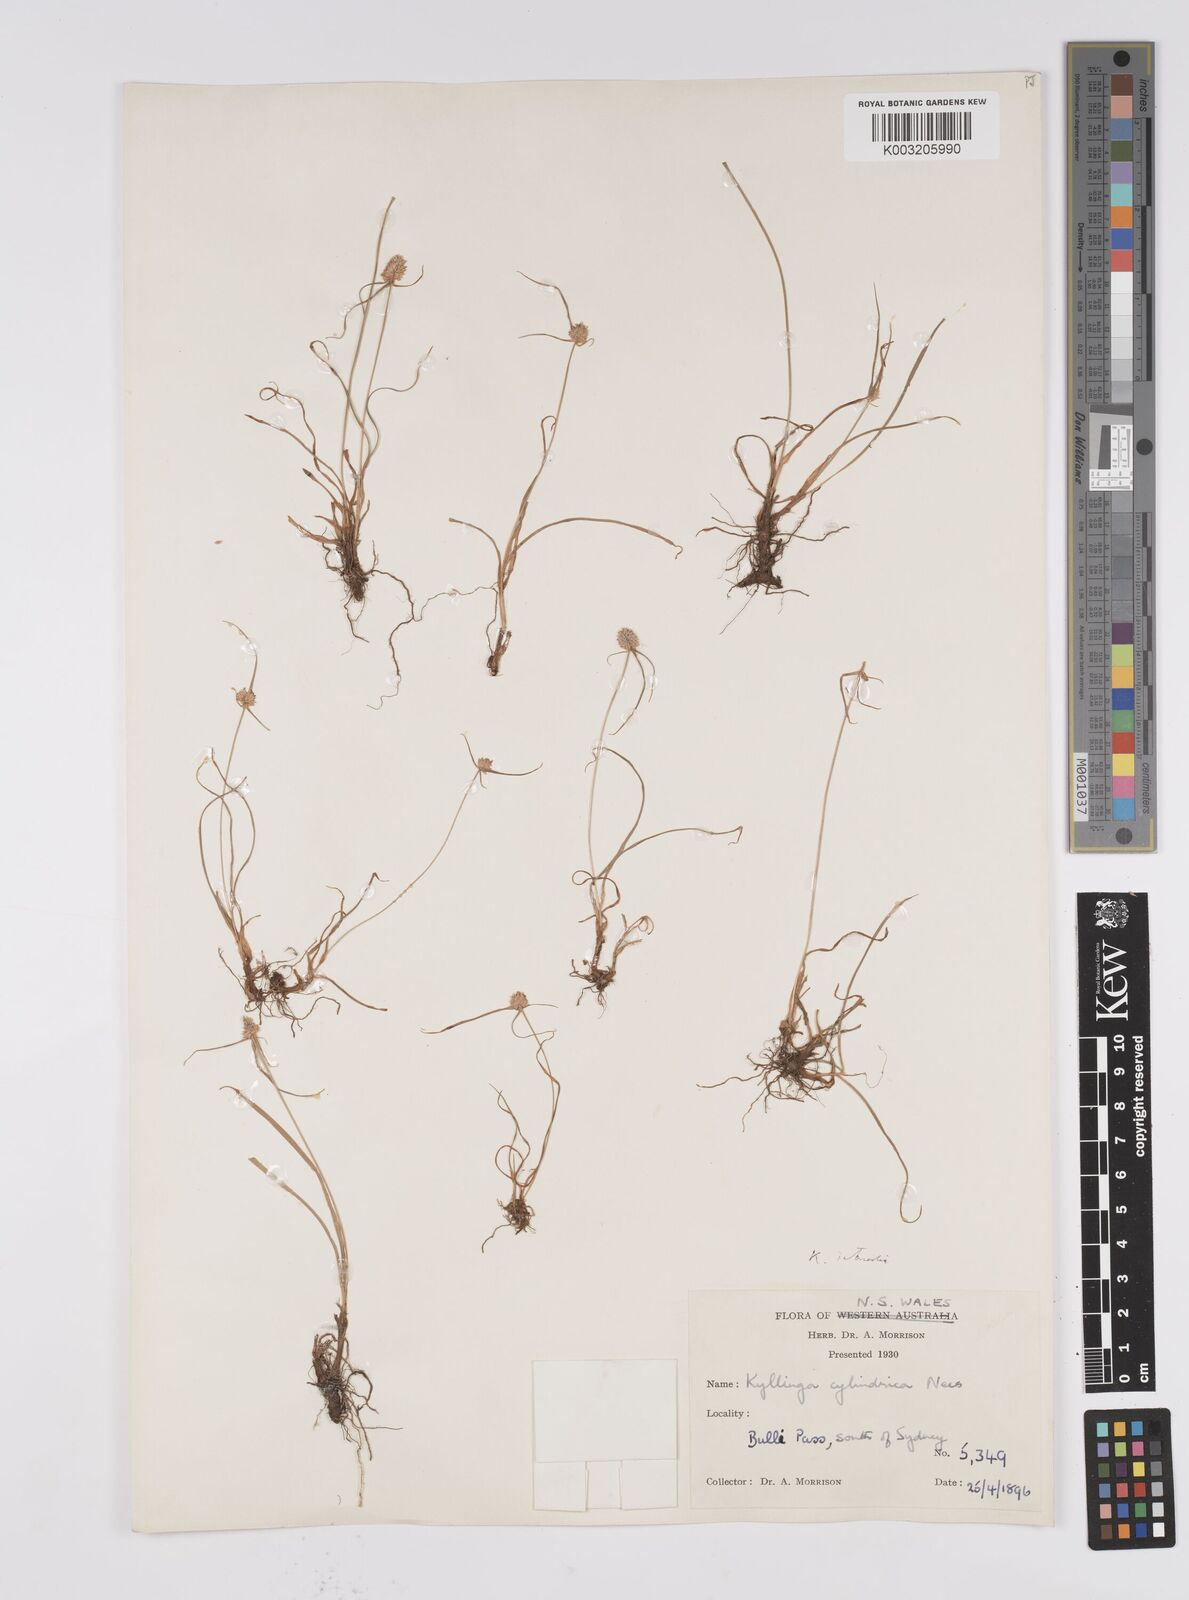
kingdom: Plantae
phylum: Tracheophyta
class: Liliopsida
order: Poales
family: Cyperaceae
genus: Cyperus
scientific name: Cyperus brevifolius
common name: Globe kyllinga
